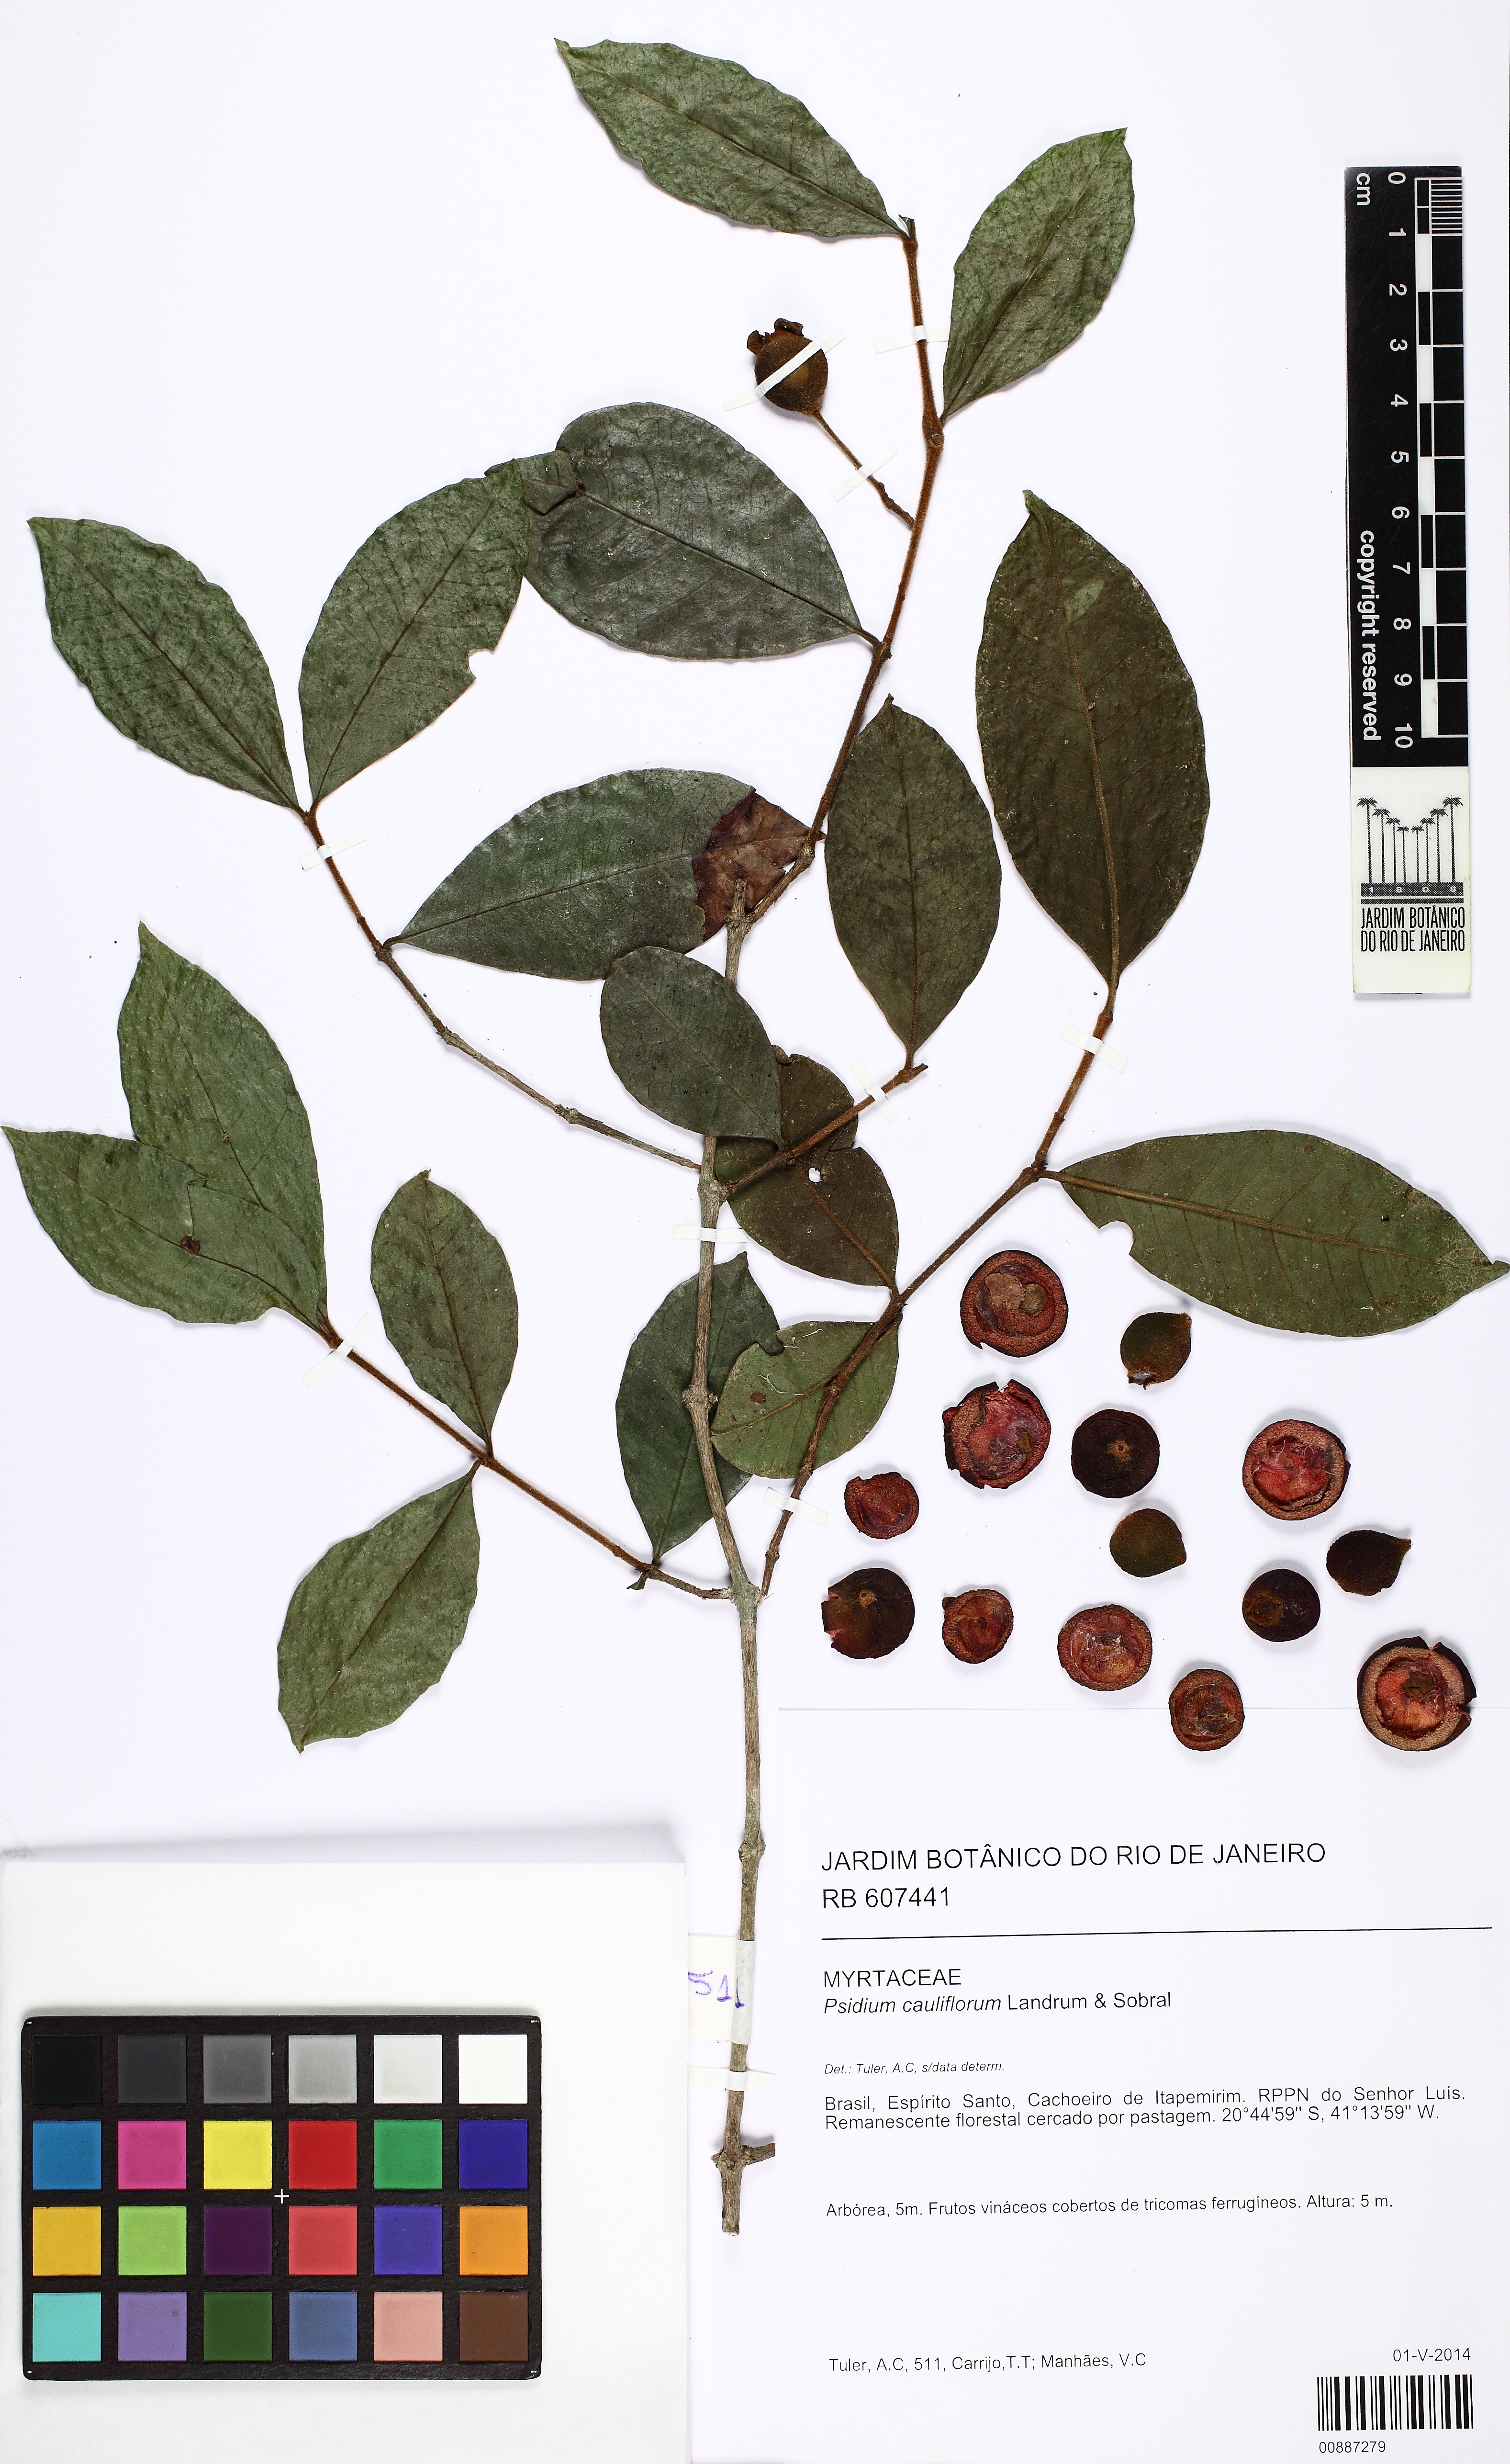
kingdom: Plantae
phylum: Tracheophyta
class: Magnoliopsida
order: Myrtales
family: Myrtaceae
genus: Psidium
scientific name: Psidium cauliflorum
